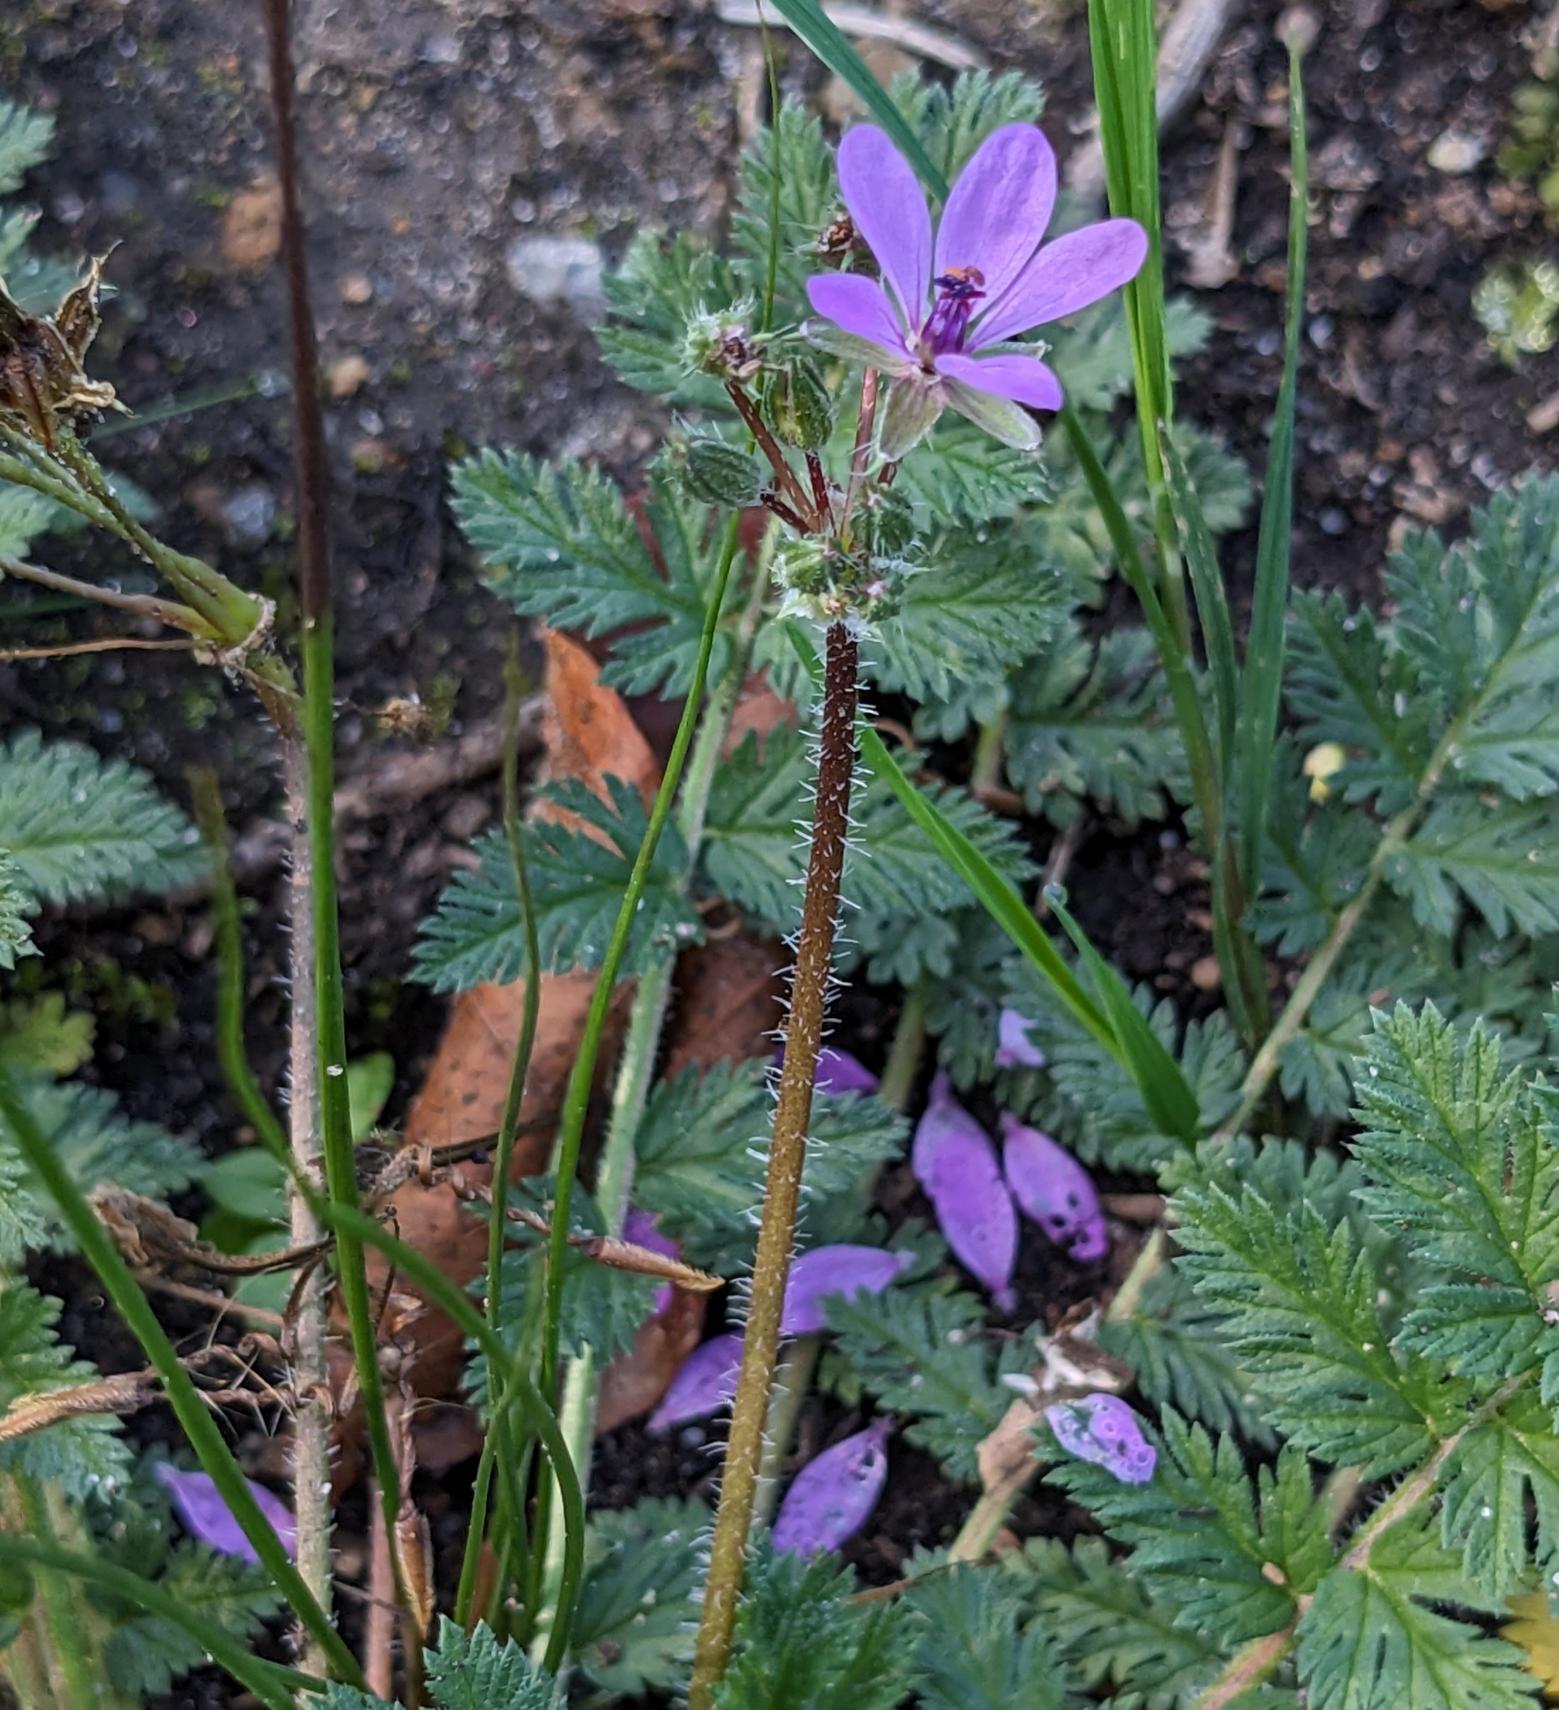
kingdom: Plantae
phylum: Tracheophyta
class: Magnoliopsida
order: Geraniales
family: Geraniaceae
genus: Erodium
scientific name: Erodium cicutarium
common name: Hejrenæb
